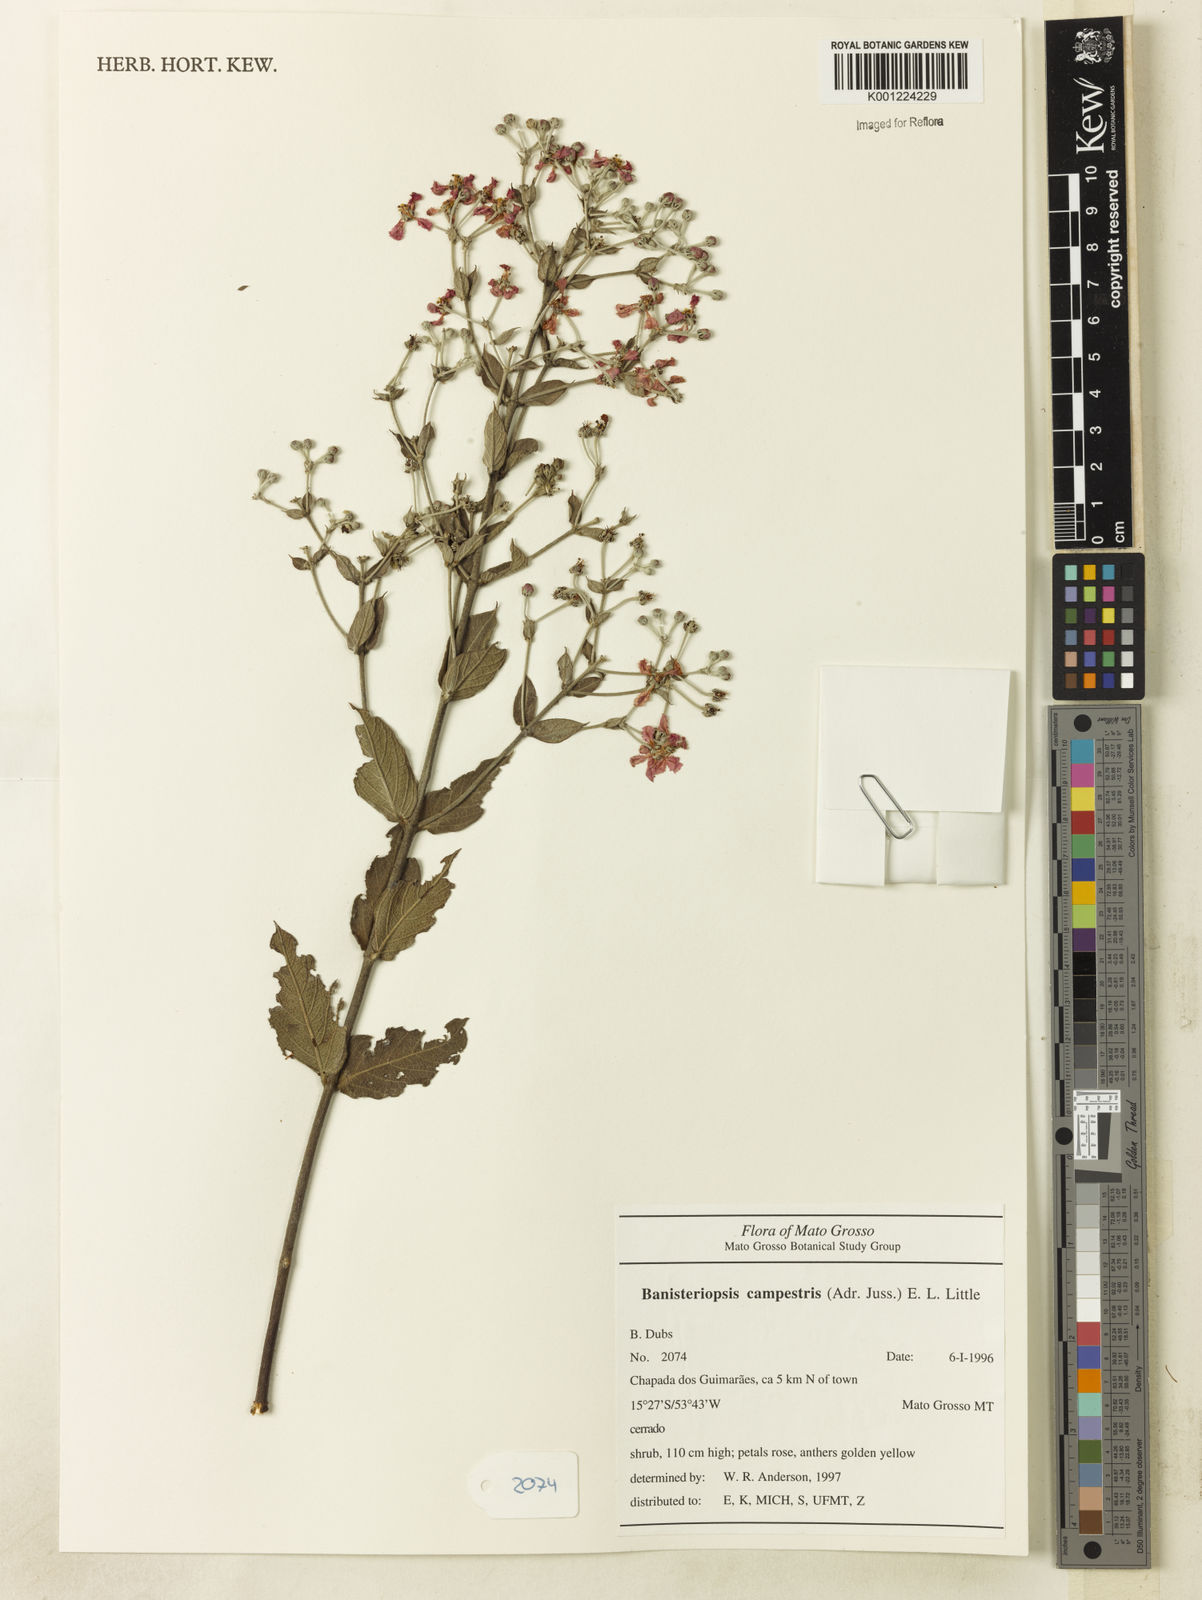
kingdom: Plantae
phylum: Tracheophyta
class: Magnoliopsida
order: Malpighiales
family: Malpighiaceae
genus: Banisteriopsis
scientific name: Banisteriopsis campestris
